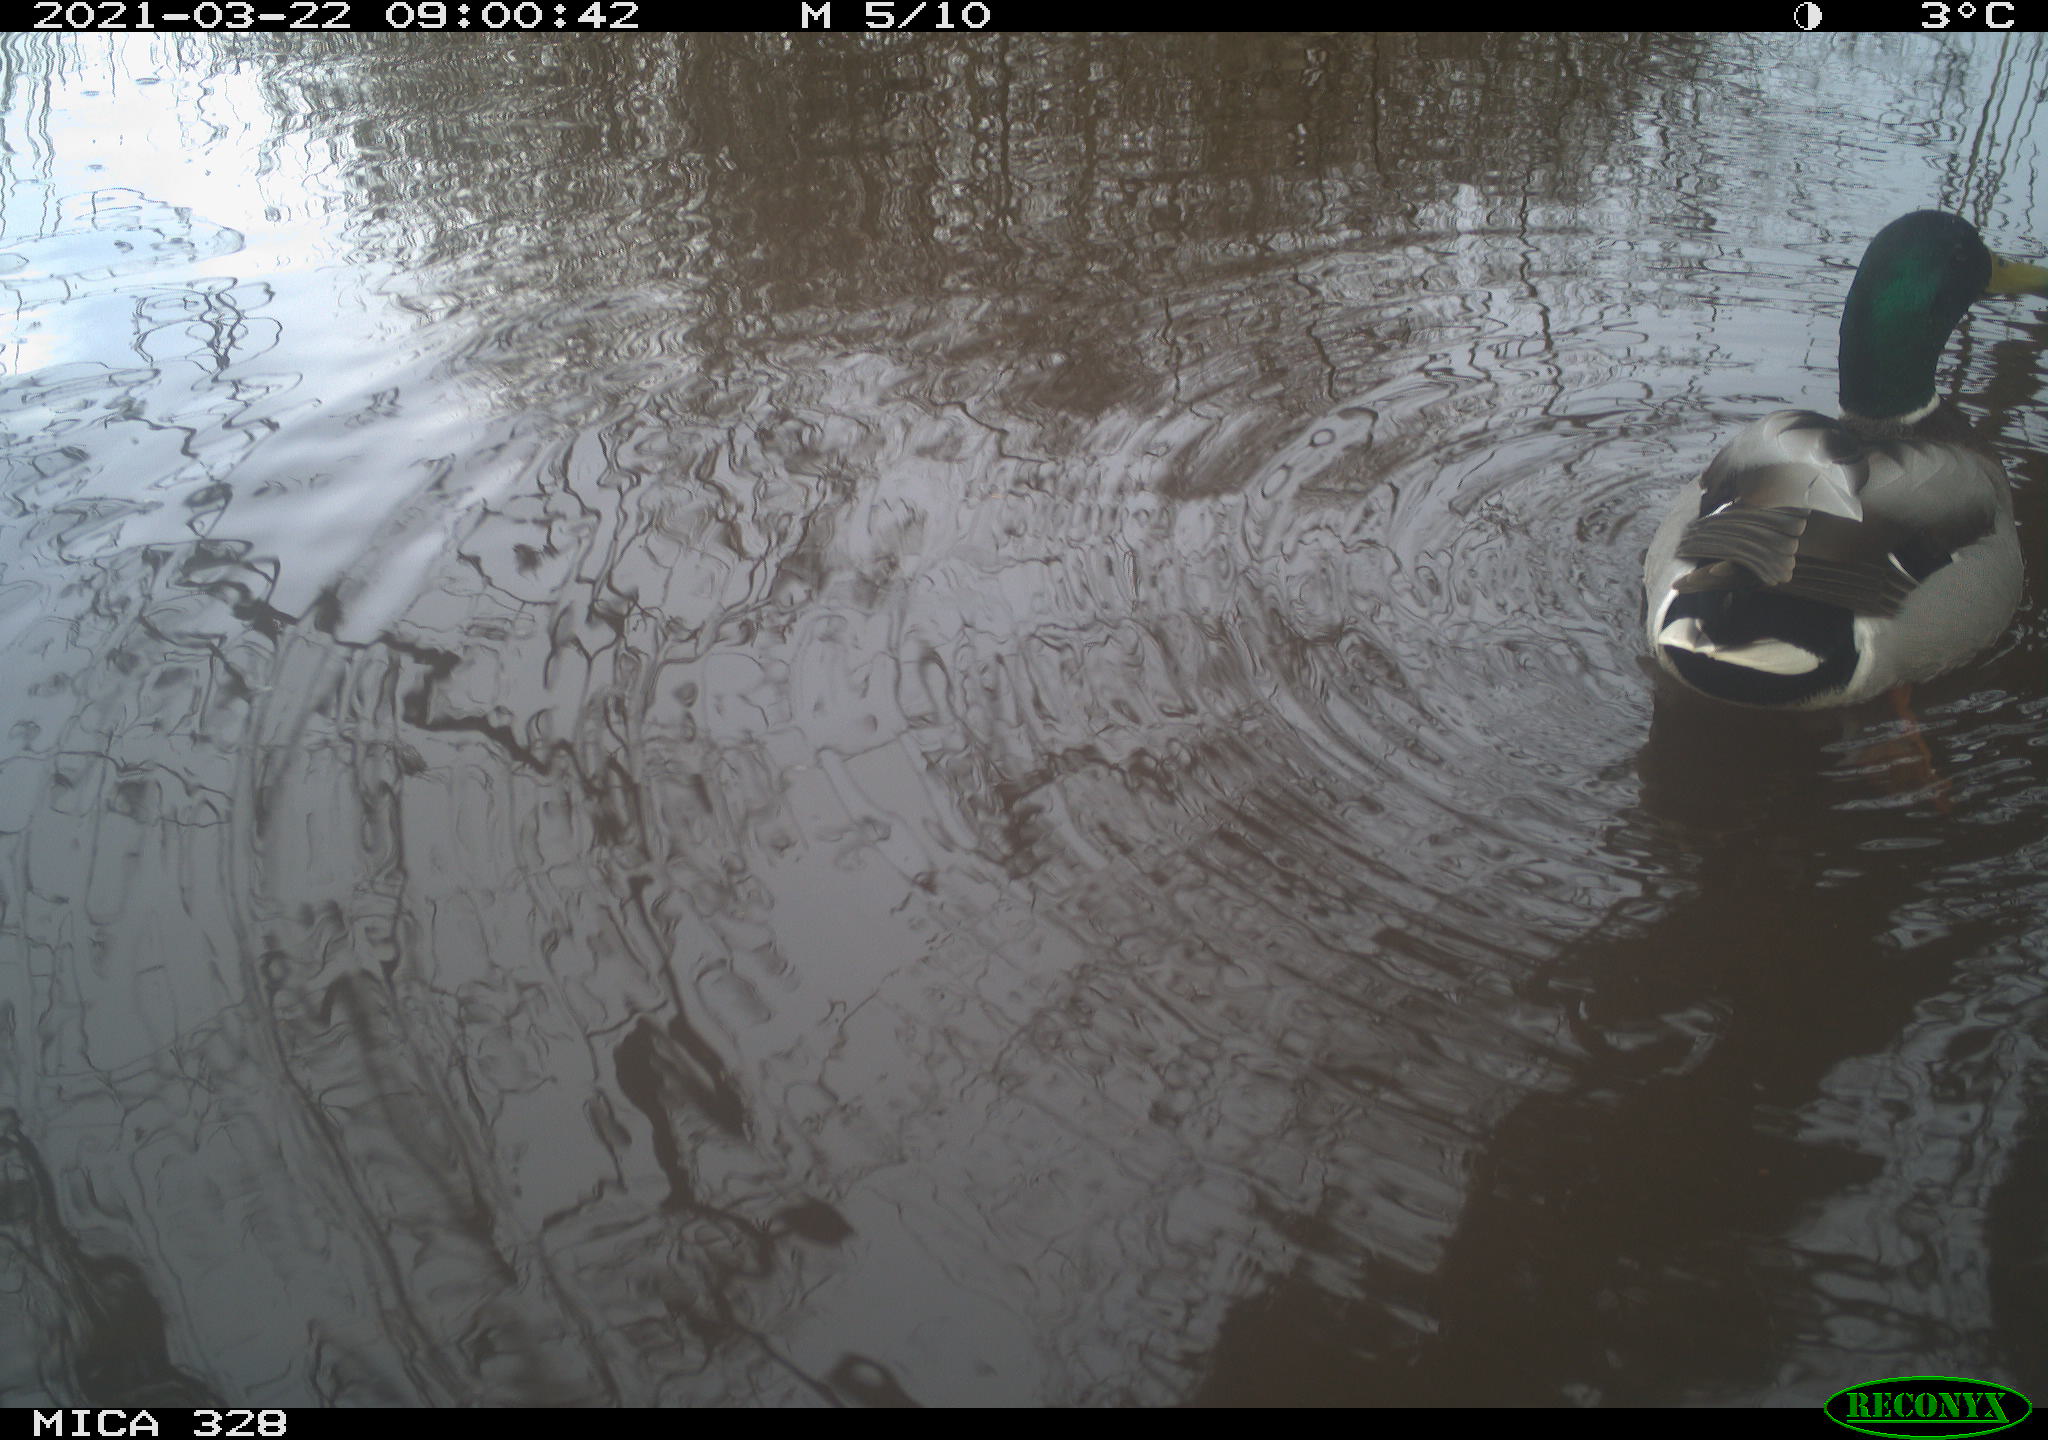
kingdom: Animalia
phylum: Chordata
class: Aves
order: Anseriformes
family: Anatidae
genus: Anas
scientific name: Anas platyrhynchos
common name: Mallard
